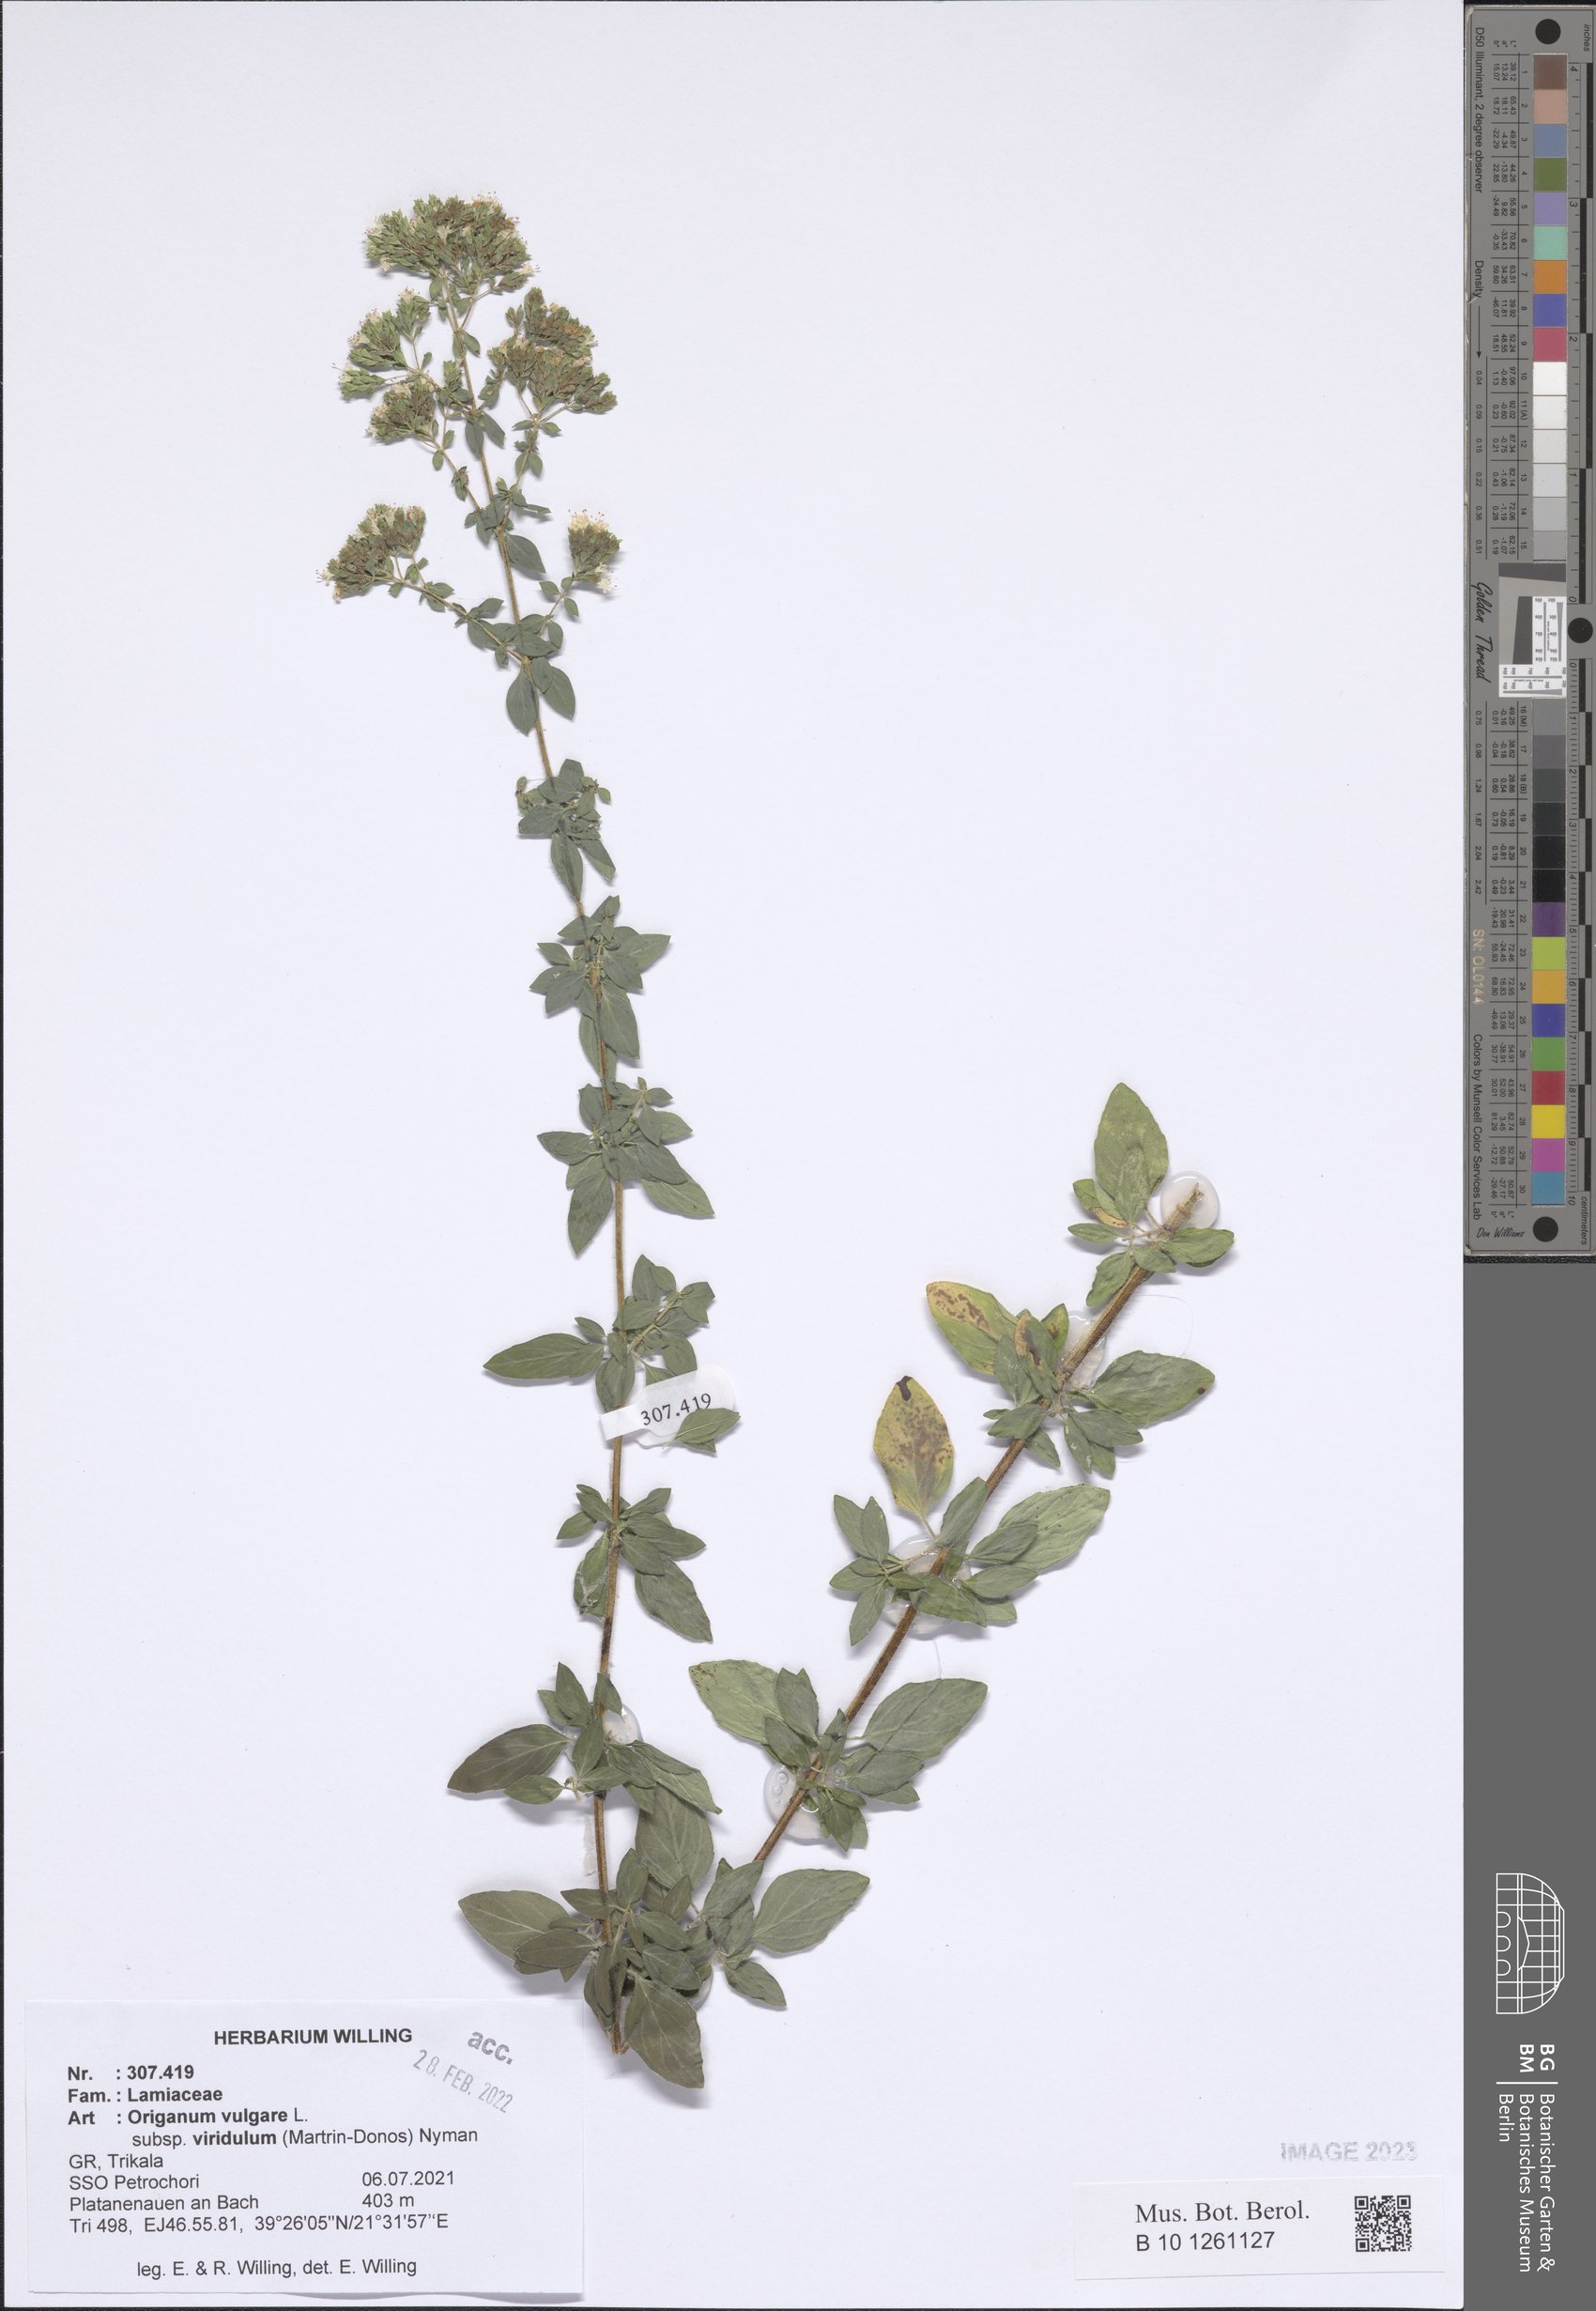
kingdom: Plantae
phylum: Tracheophyta
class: Magnoliopsida
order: Lamiales
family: Lamiaceae
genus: Origanum
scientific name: Origanum vulgare
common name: Wild marjoram
